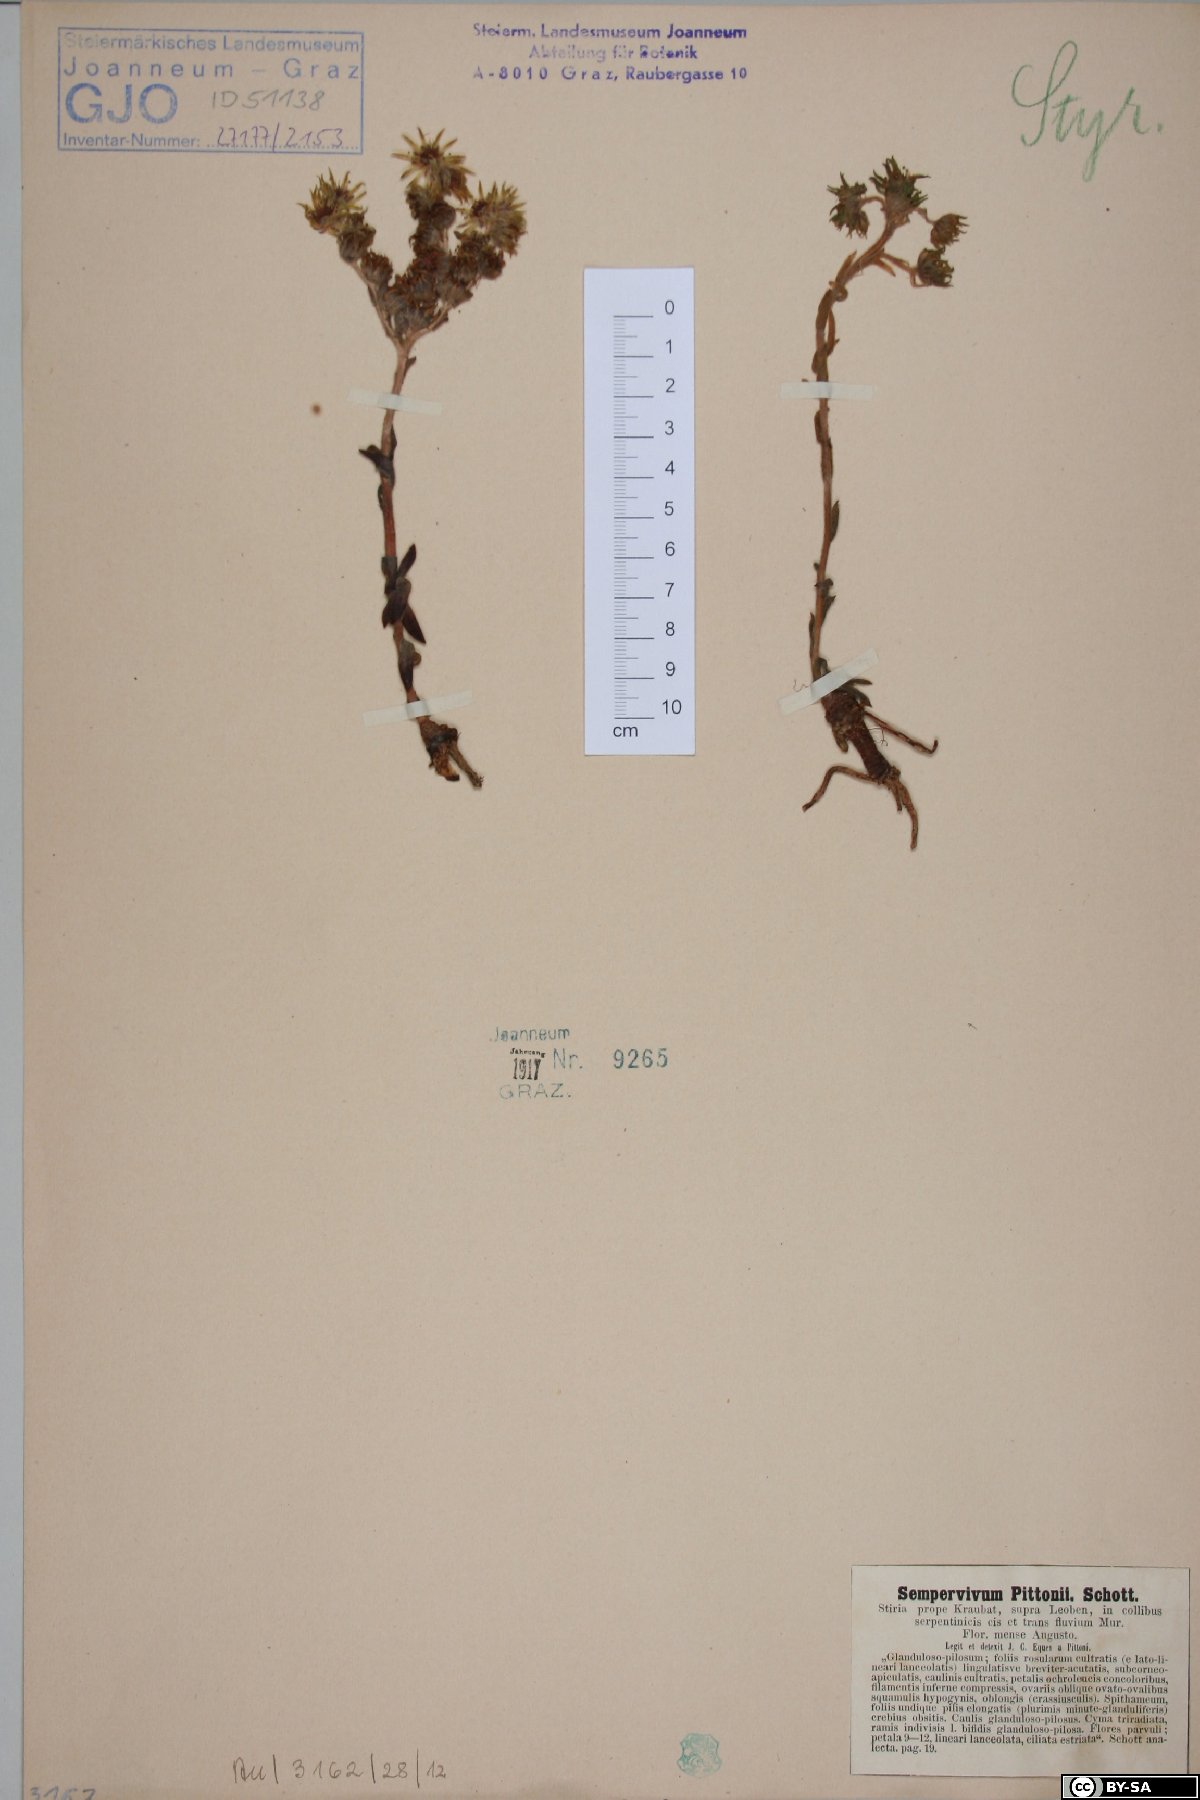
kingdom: Plantae
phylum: Tracheophyta
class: Magnoliopsida
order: Saxifragales
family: Crassulaceae
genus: Sempervivum
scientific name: Sempervivum pittonii
